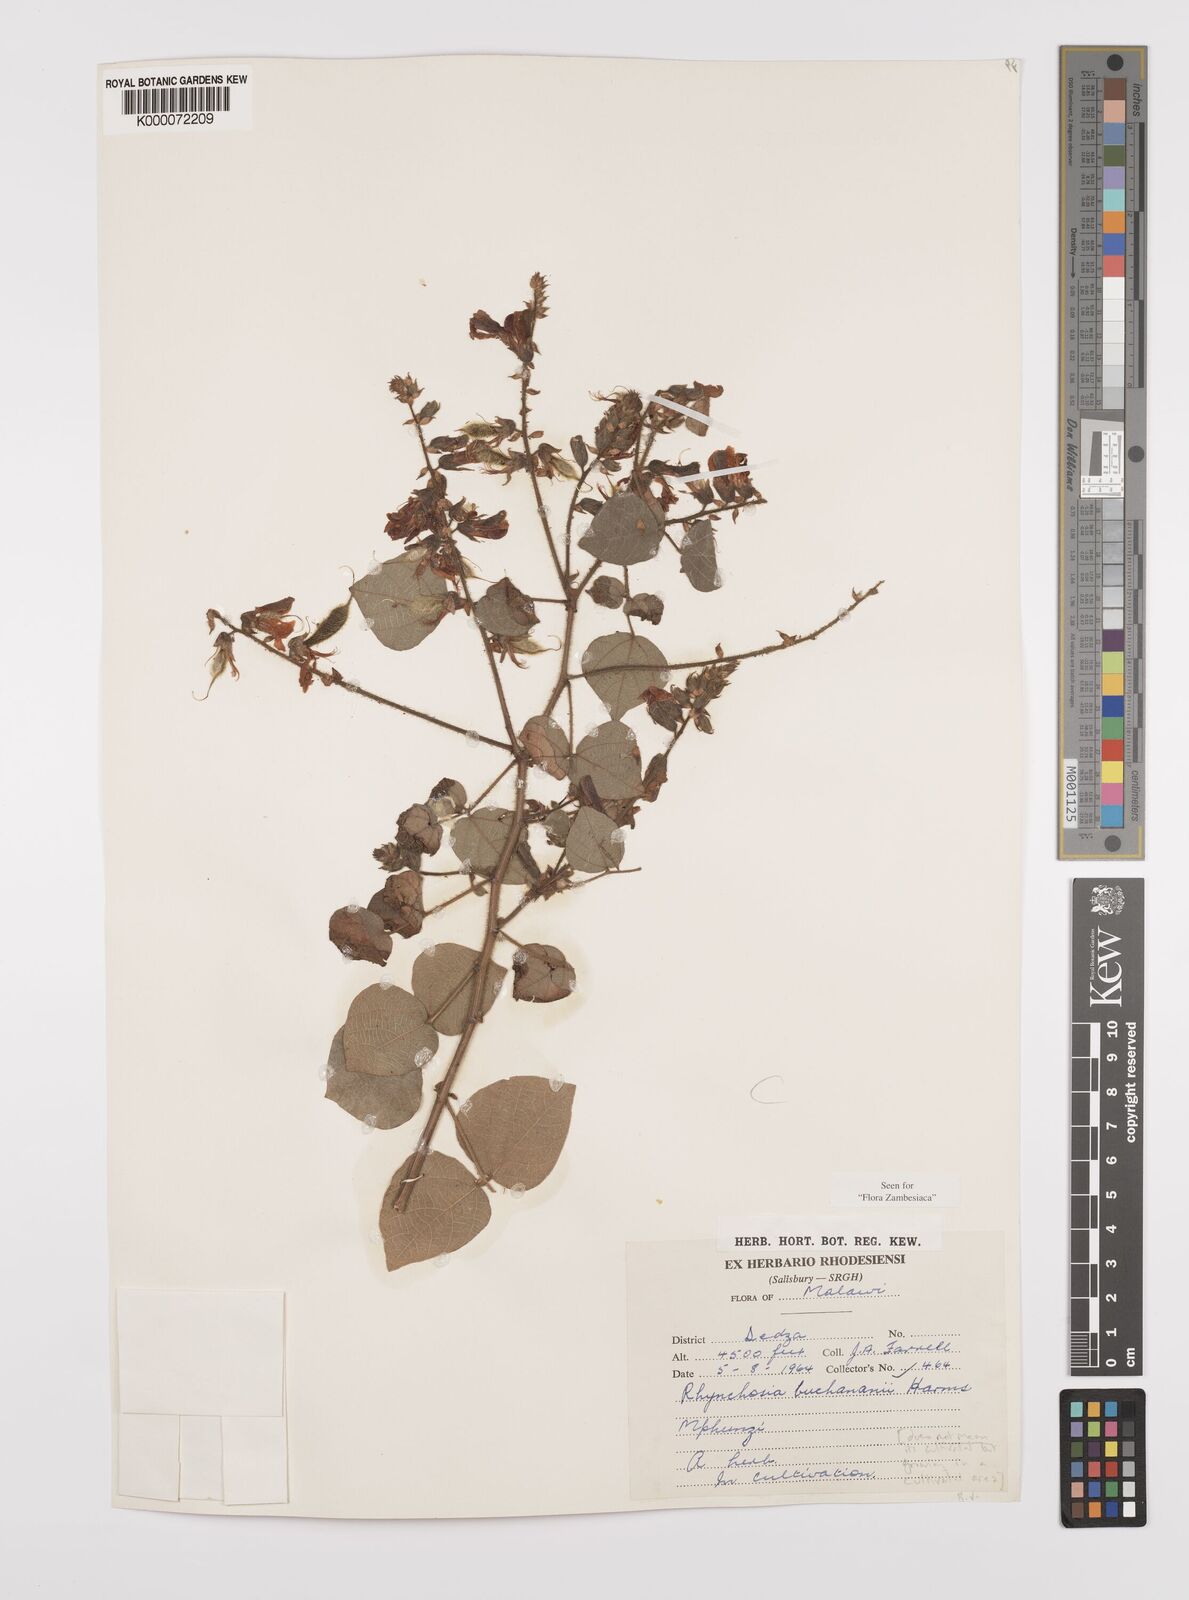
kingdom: Plantae
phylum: Tracheophyta
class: Magnoliopsida
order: Fabales
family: Fabaceae
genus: Rhynchosia
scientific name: Rhynchosia buchananii
